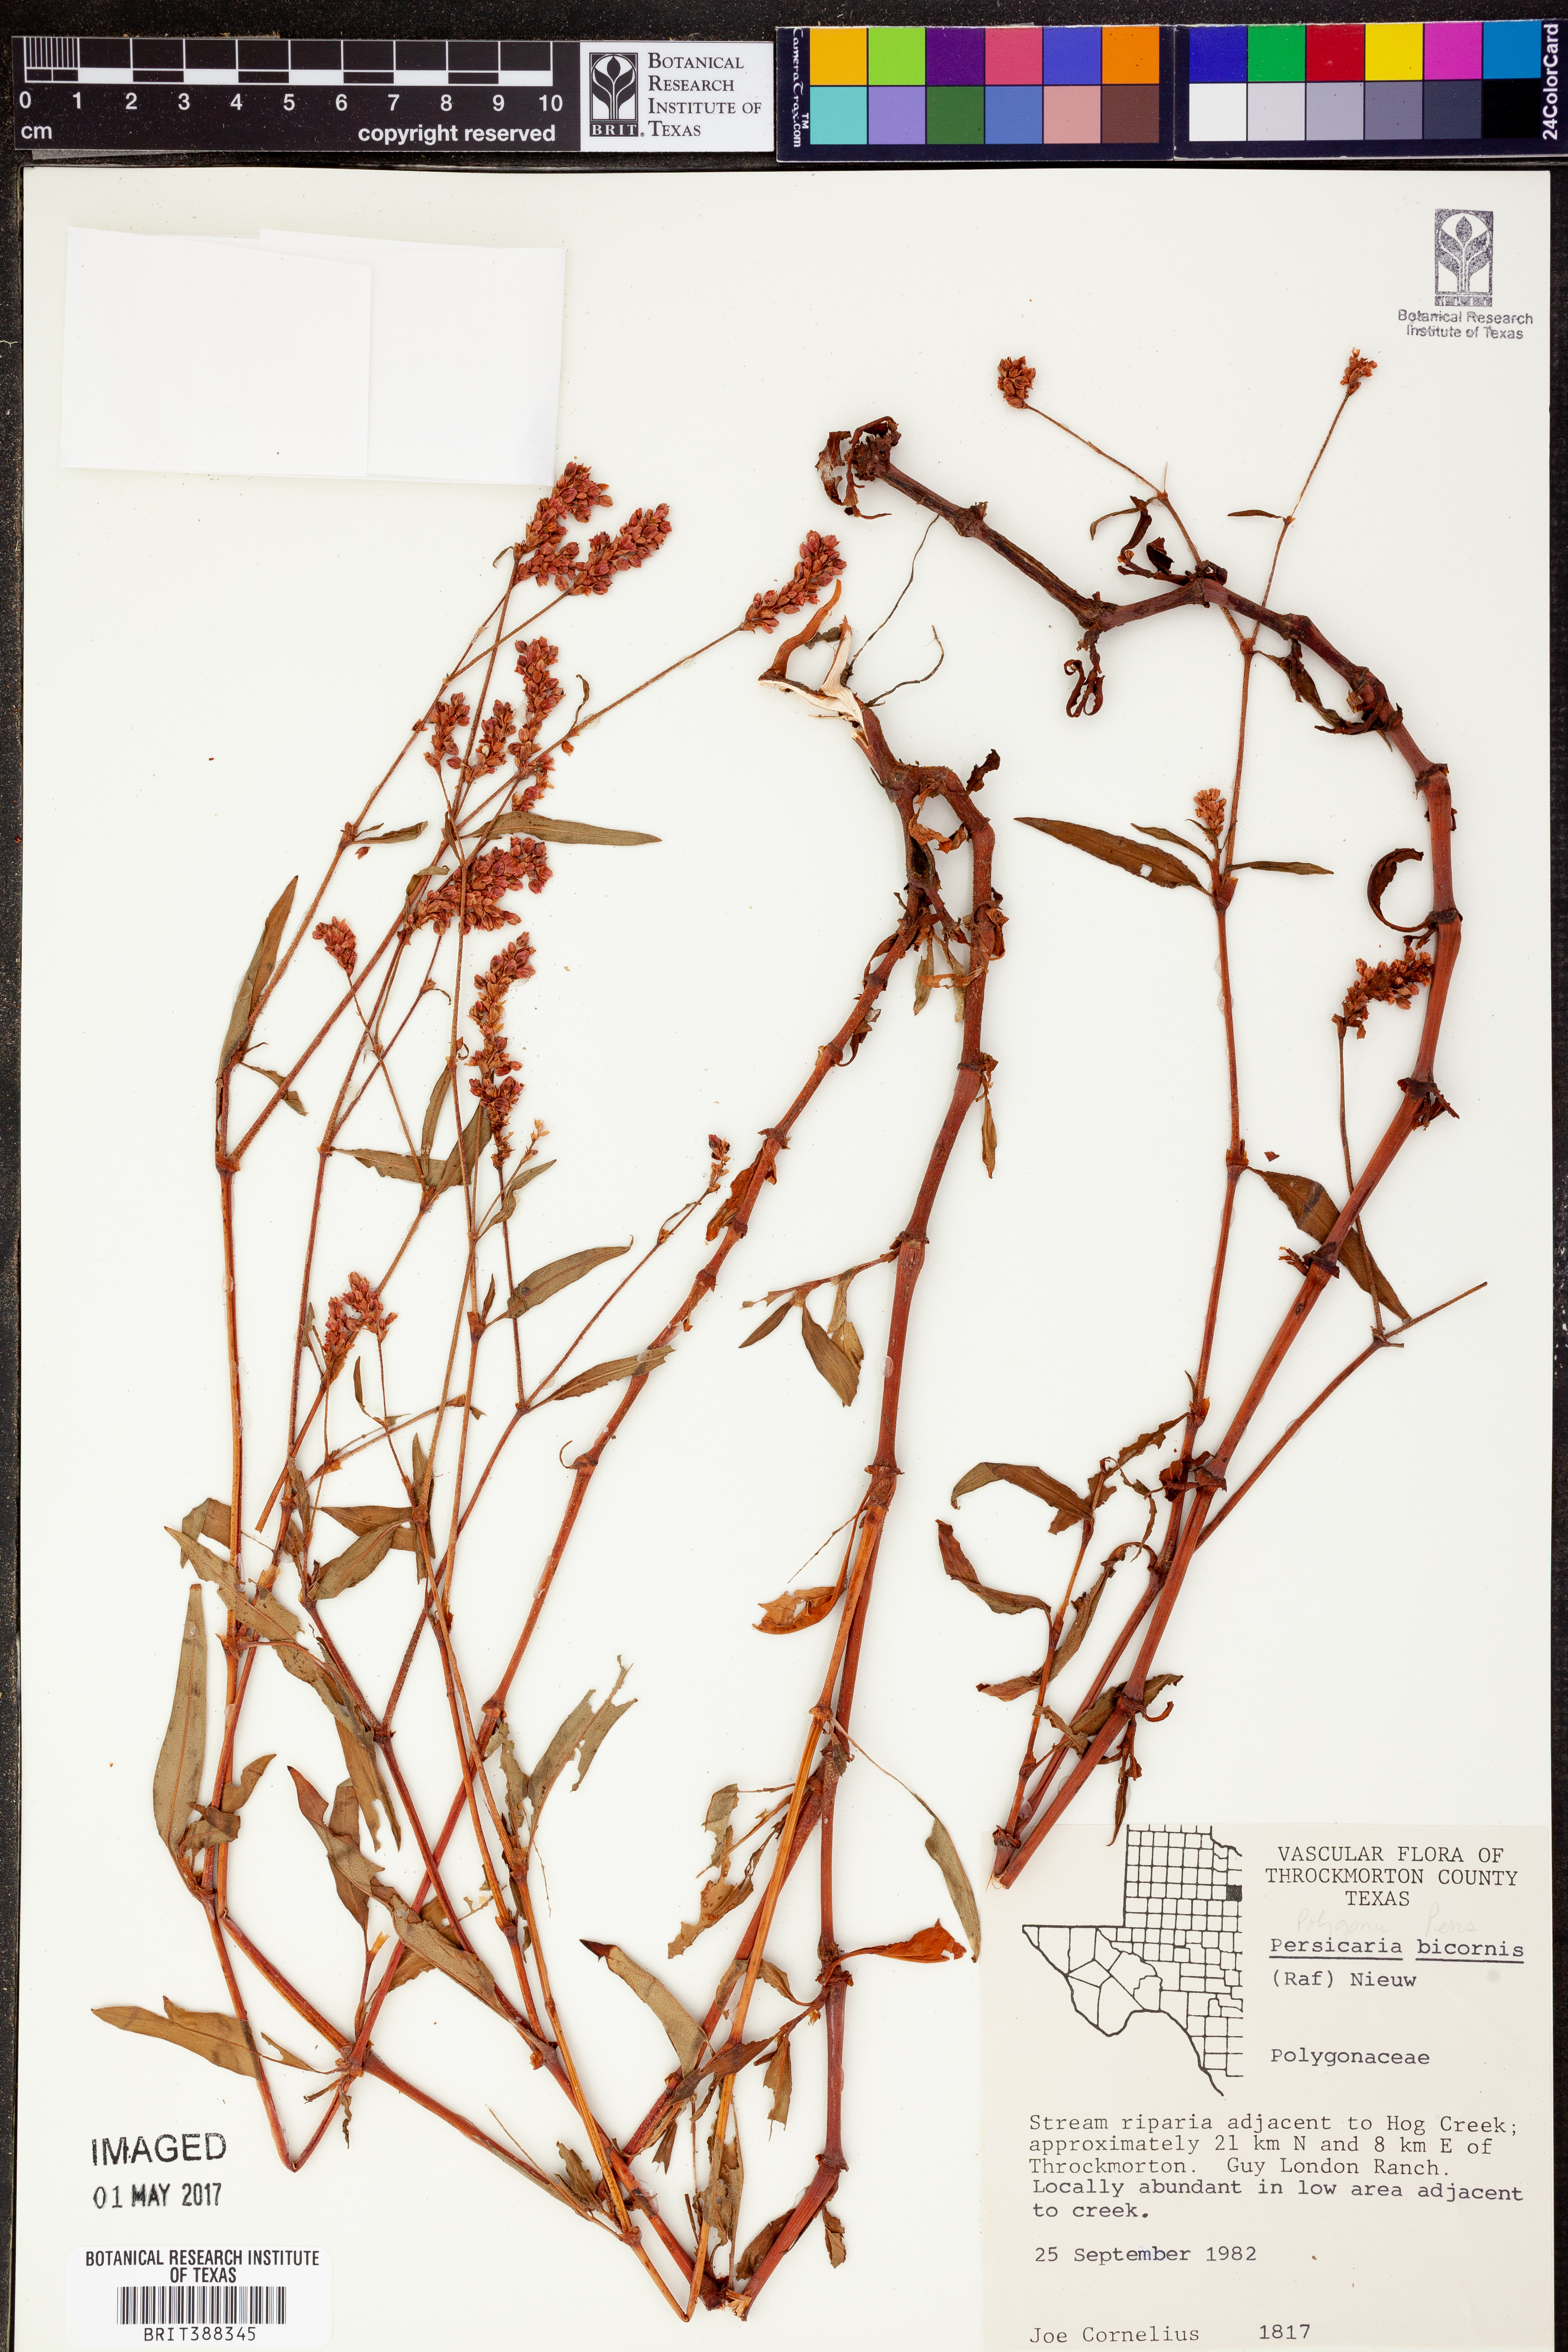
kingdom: Plantae
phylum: Tracheophyta
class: Magnoliopsida
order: Caryophyllales
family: Polygonaceae
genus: Persicaria
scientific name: Persicaria bicornis
